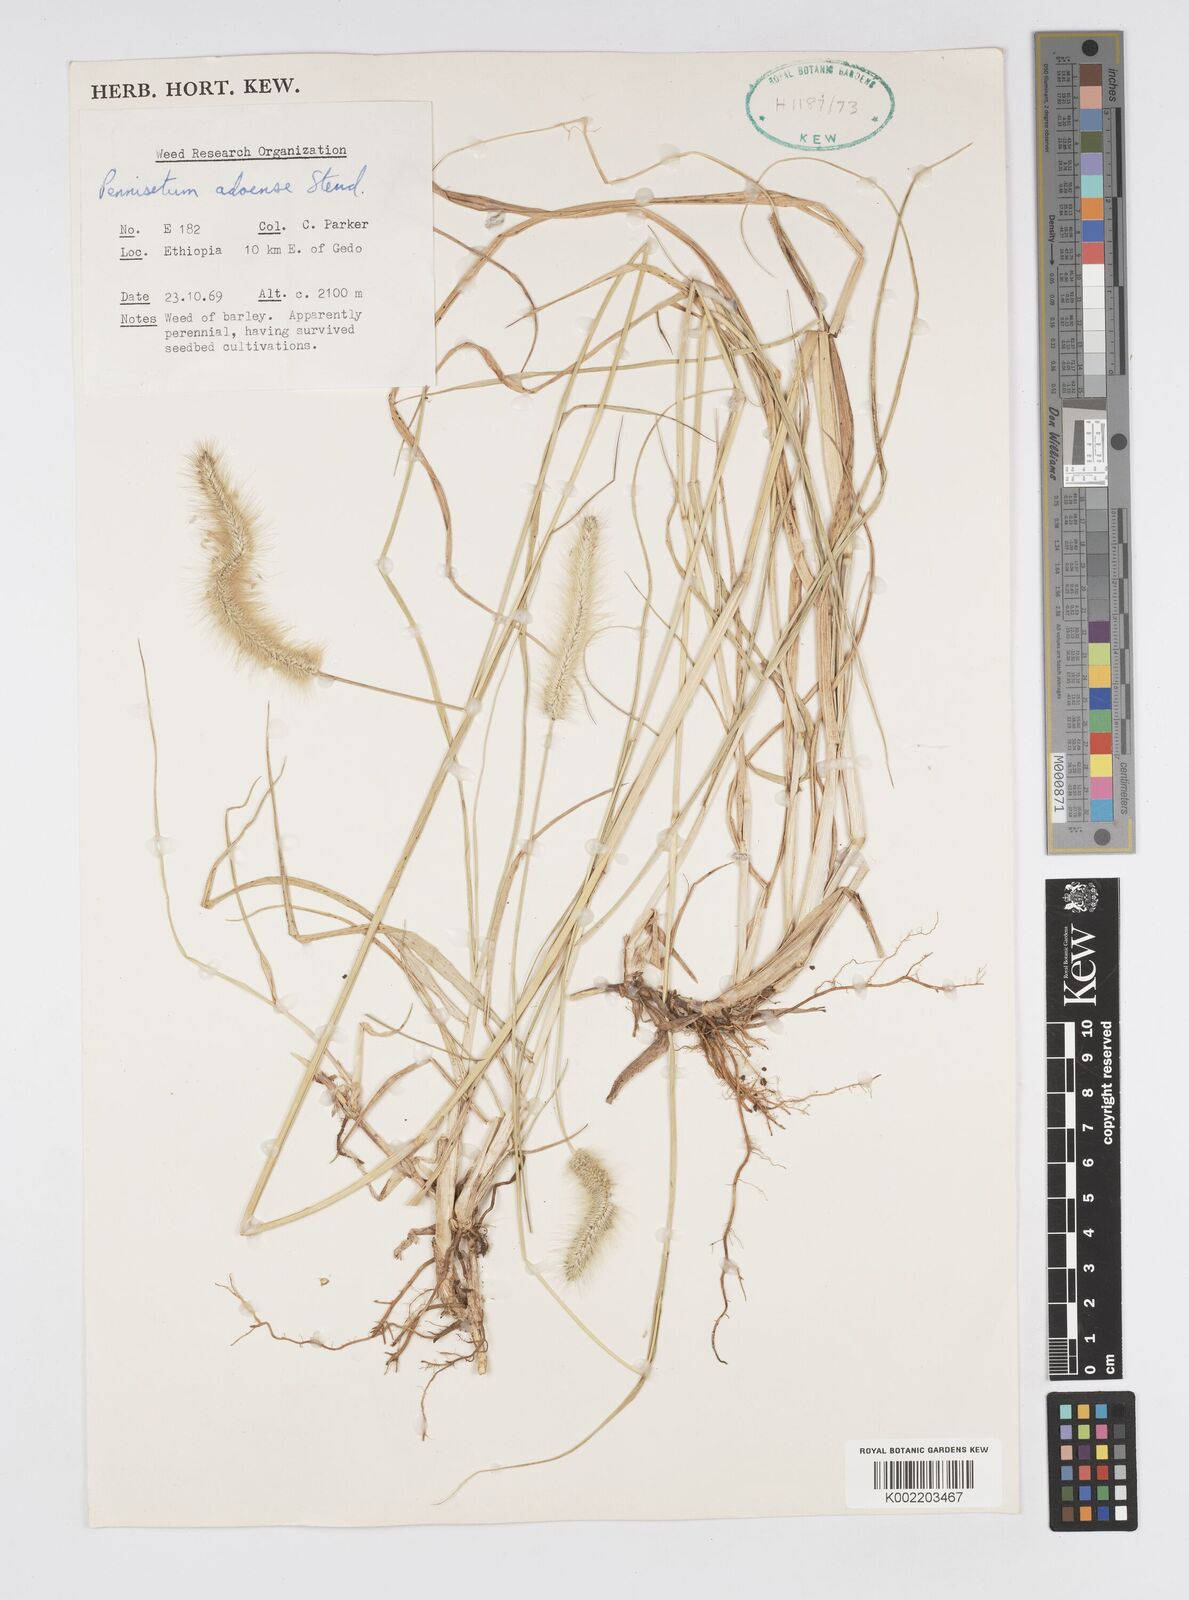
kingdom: Plantae
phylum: Tracheophyta
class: Liliopsida
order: Poales
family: Poaceae
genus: Cenchrus
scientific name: Cenchrus geniculatus
